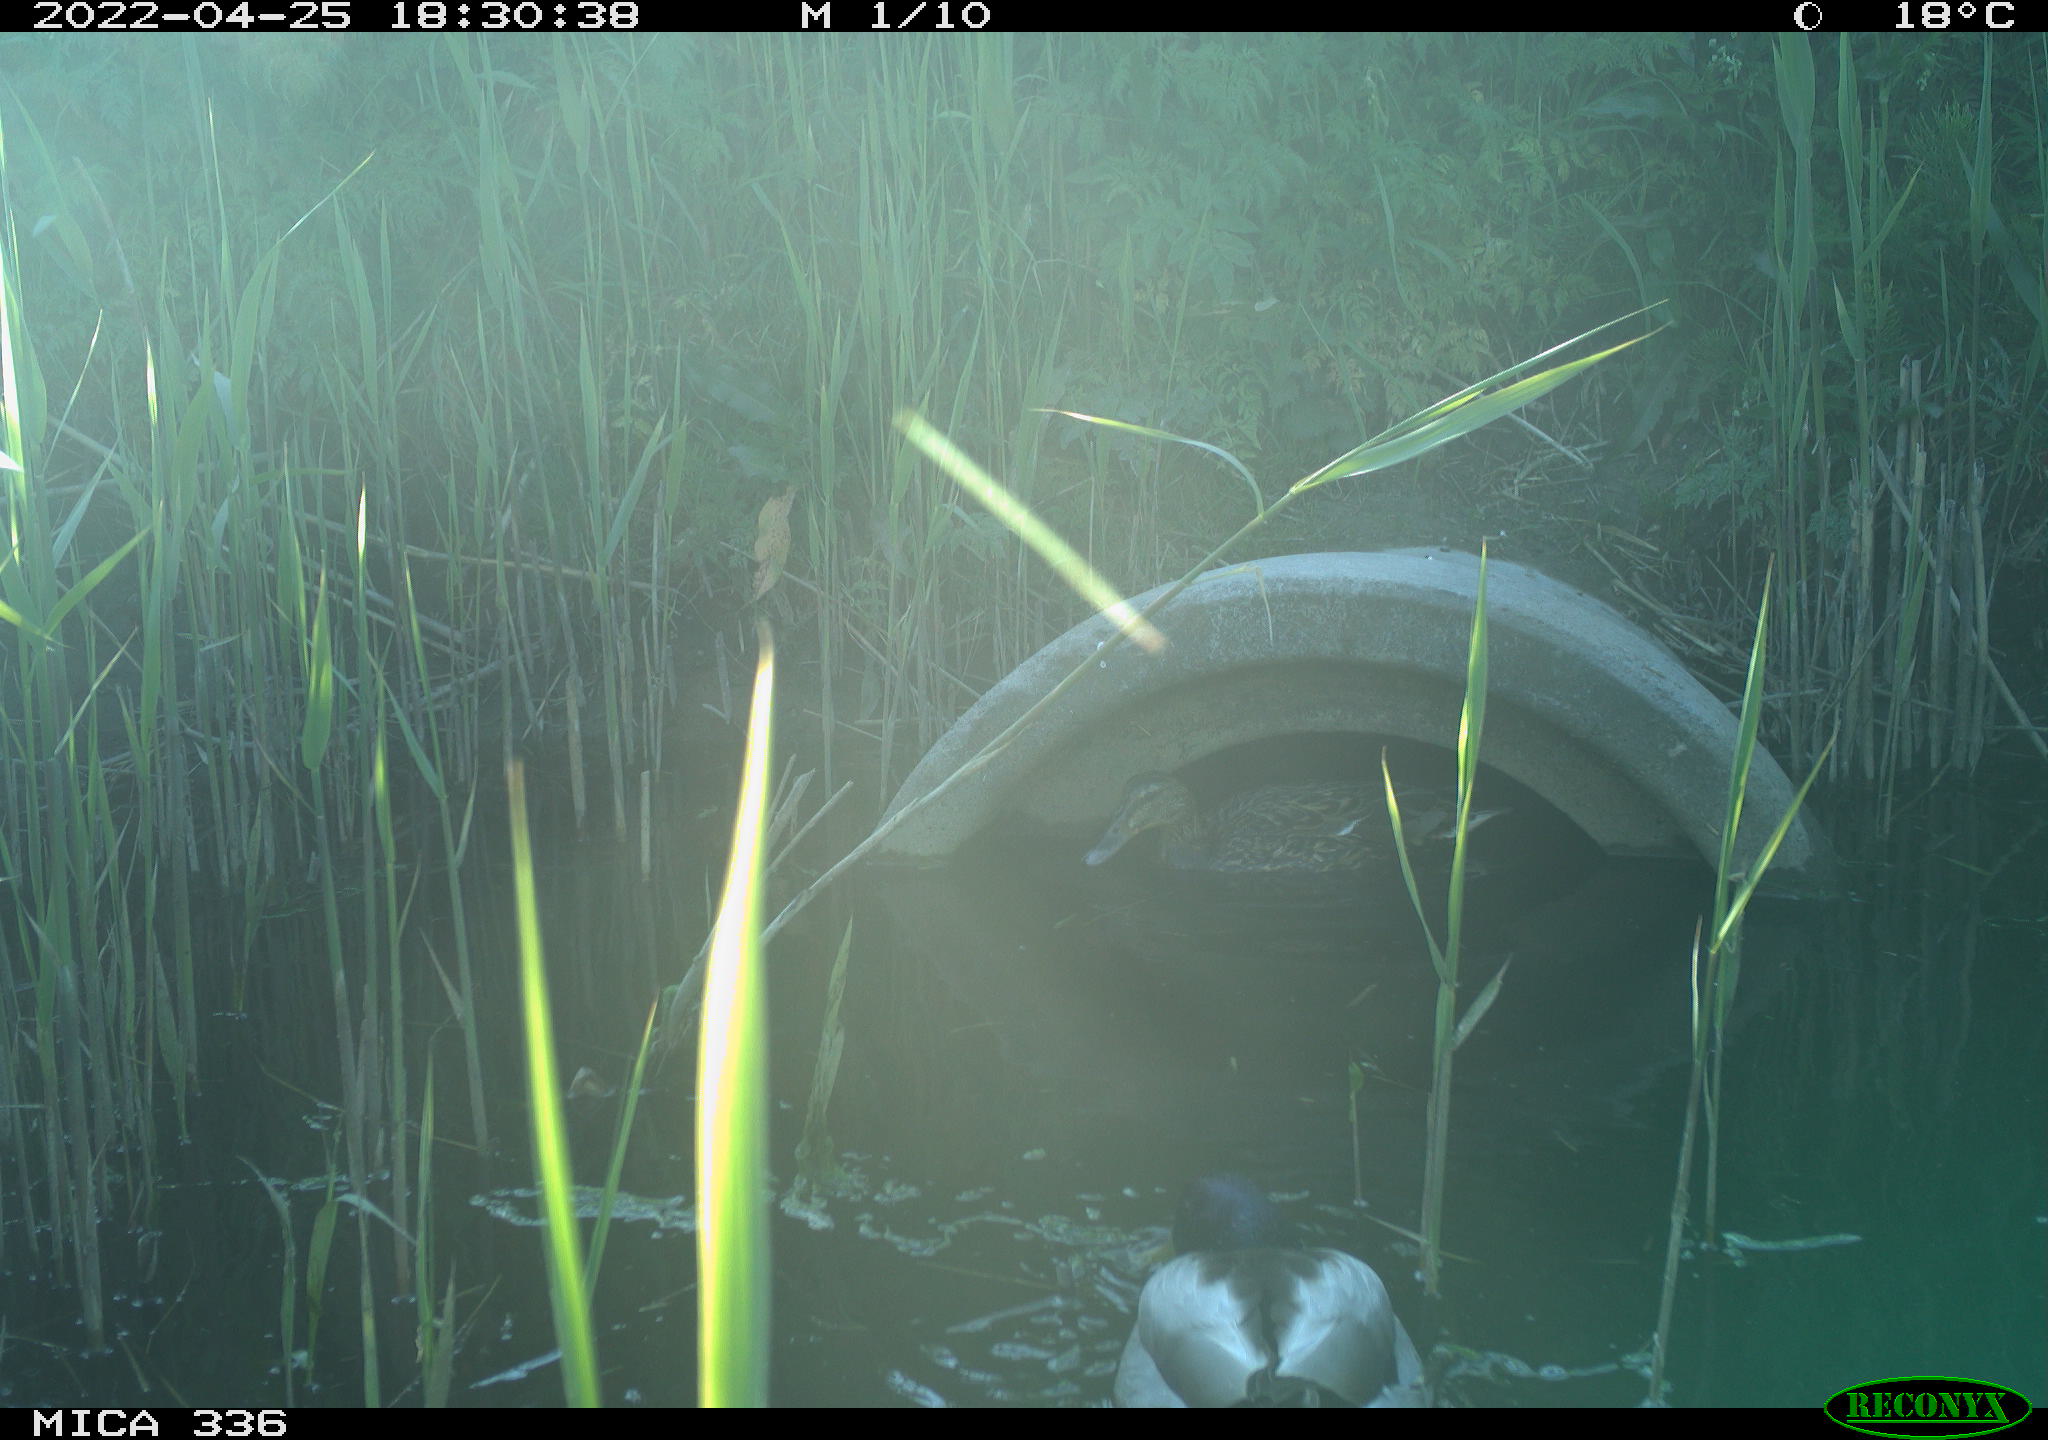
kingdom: Animalia
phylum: Chordata
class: Aves
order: Anseriformes
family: Anatidae
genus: Anas
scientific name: Anas platyrhynchos
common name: Mallard
